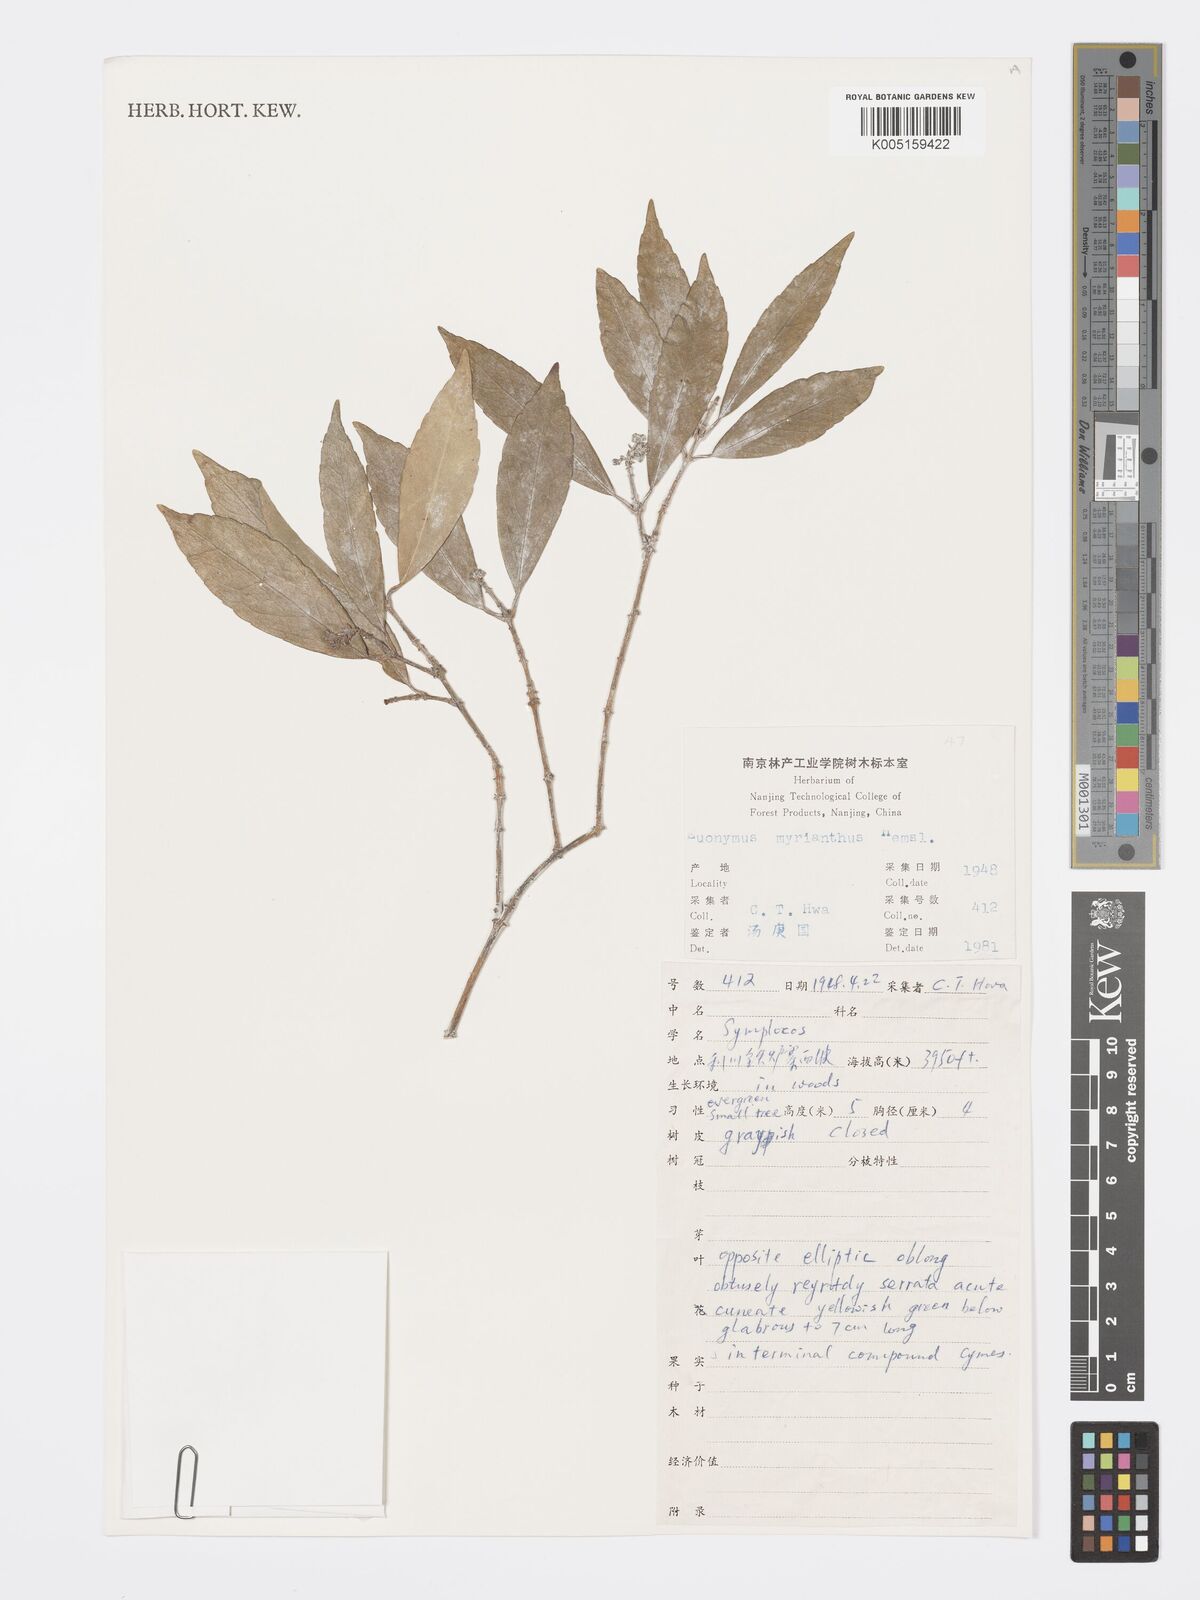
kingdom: Plantae
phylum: Tracheophyta
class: Magnoliopsida
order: Celastrales
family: Celastraceae
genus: Euonymus
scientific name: Euonymus myrianthus
